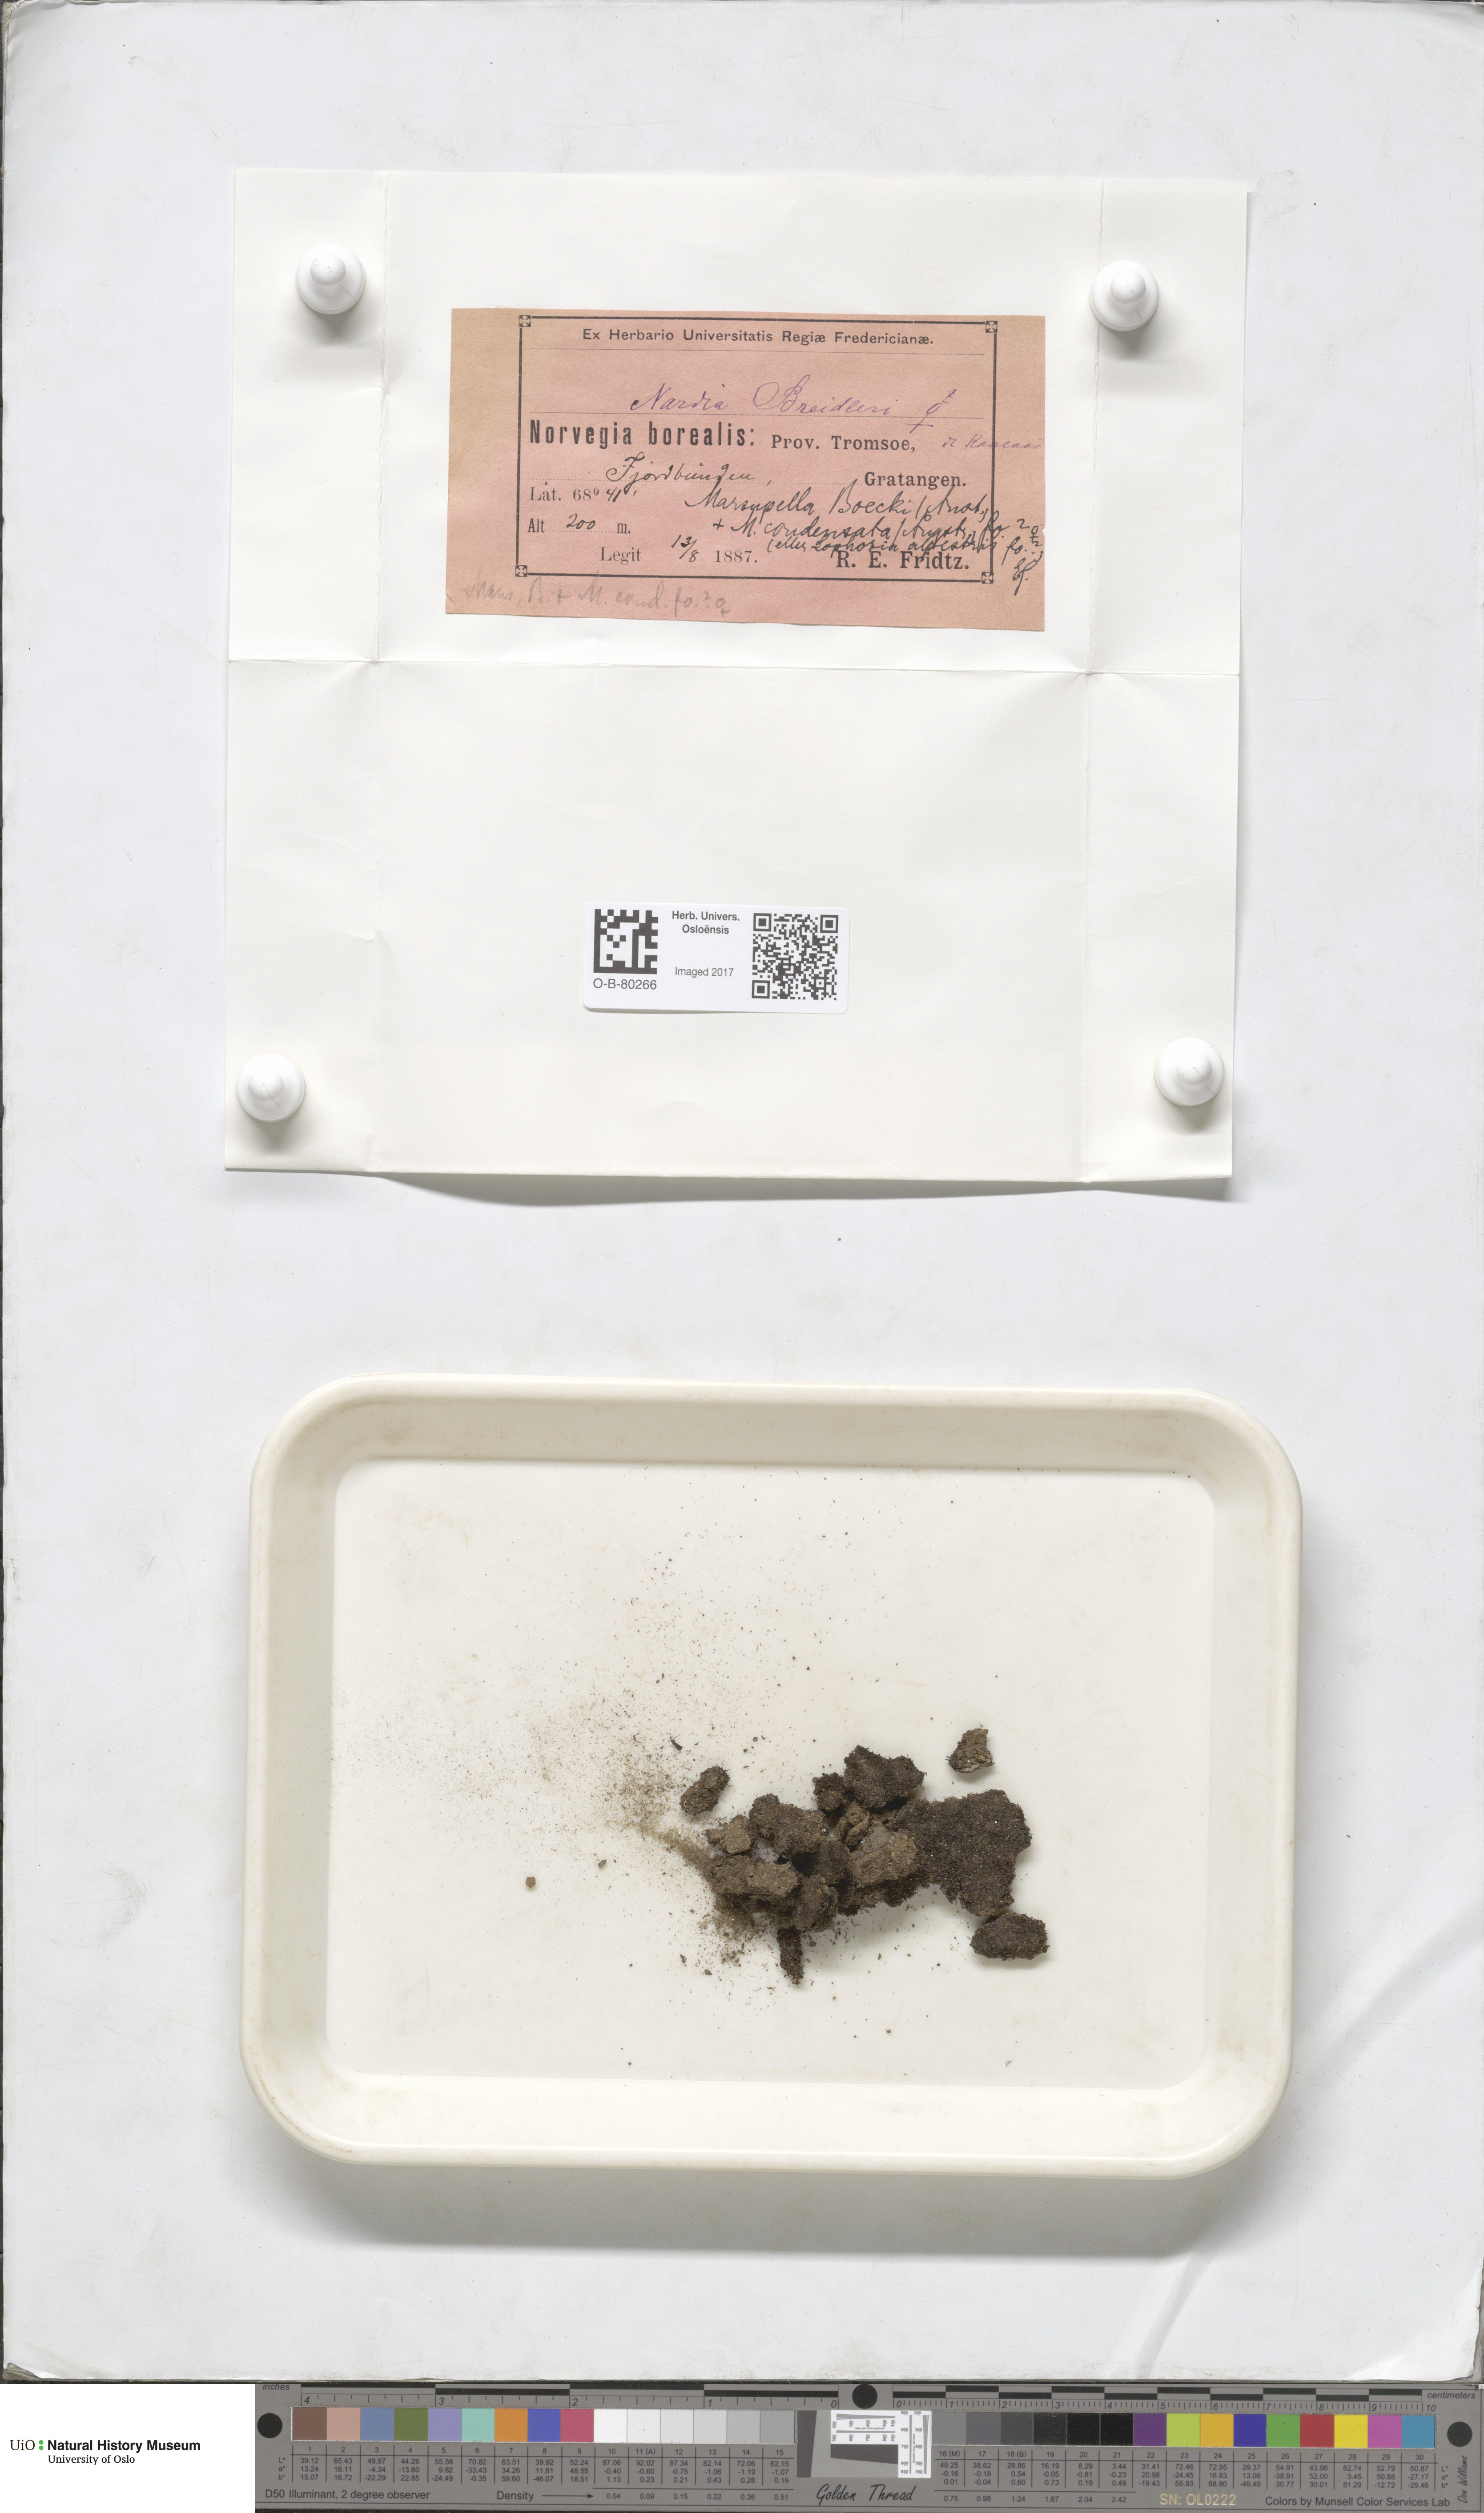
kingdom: Plantae
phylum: Marchantiophyta
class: Jungermanniopsida
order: Jungermanniales
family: Gymnomitriaceae
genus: Nardia
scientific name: Nardia breidleri
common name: Book flapwort
